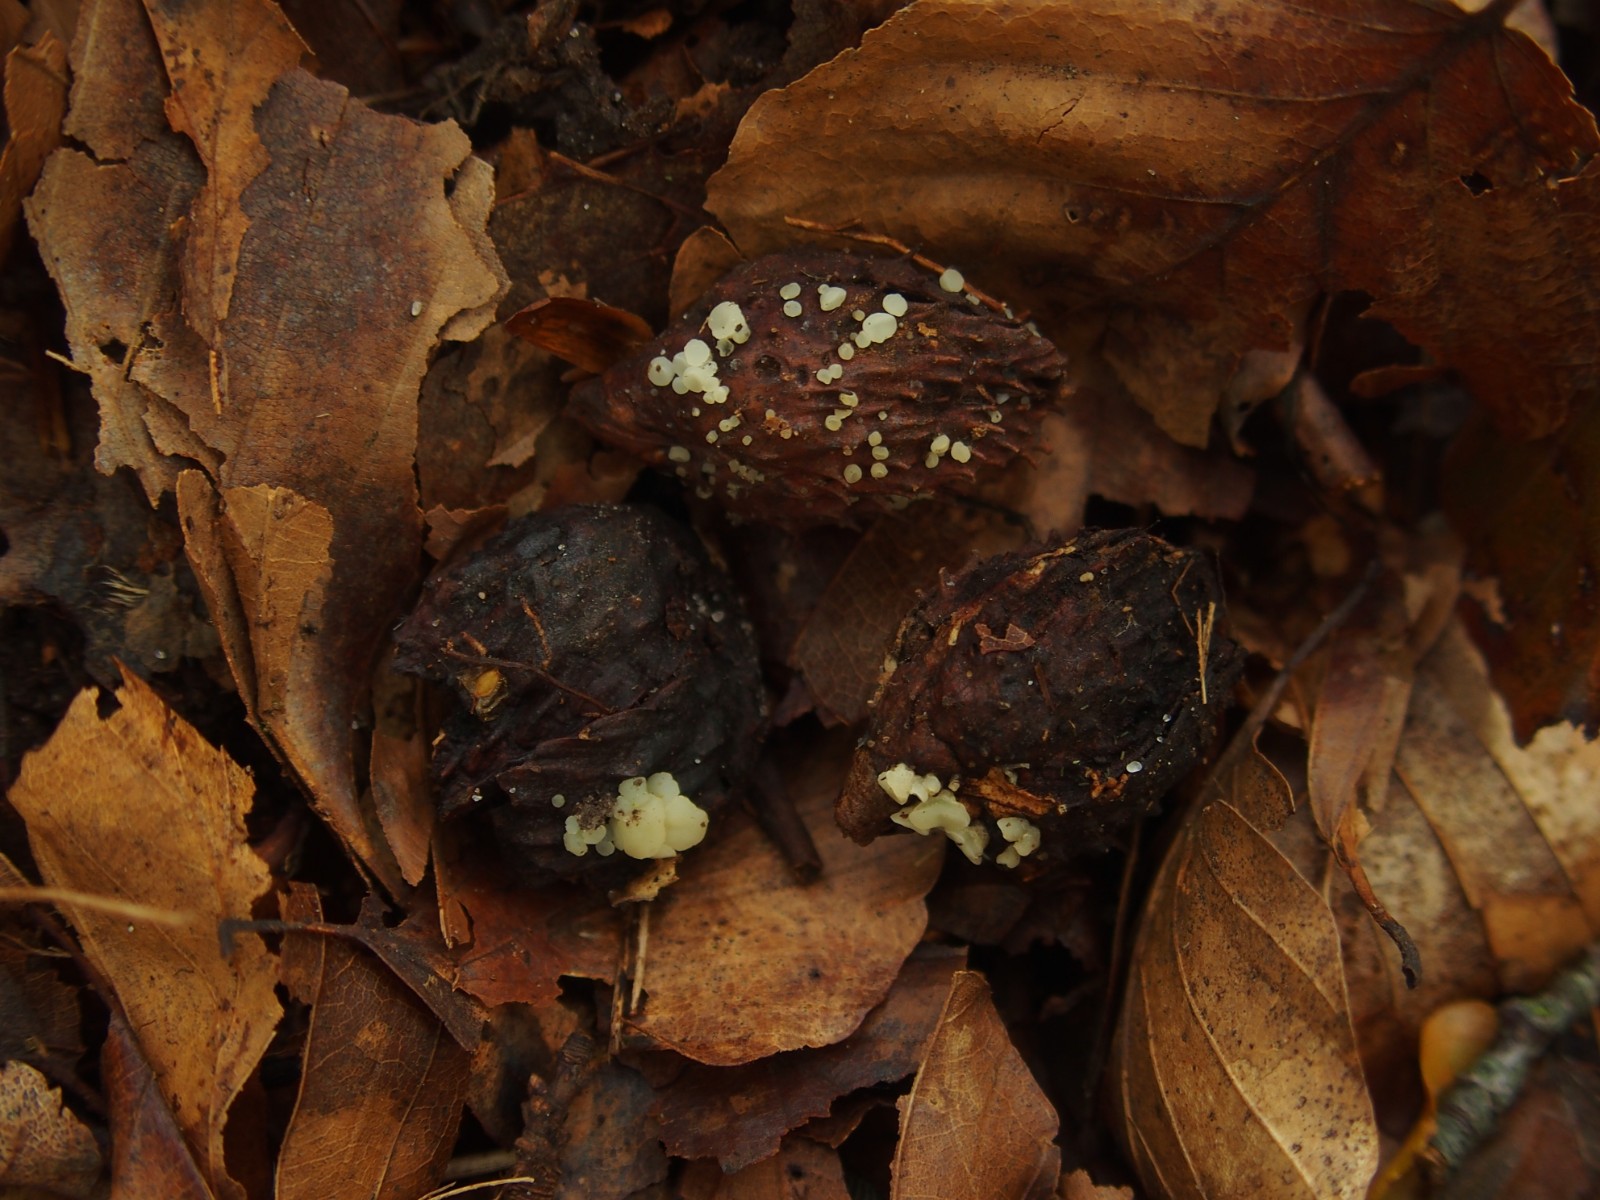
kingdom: Fungi
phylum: Ascomycota
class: Leotiomycetes
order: Helotiales
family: Helotiaceae
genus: Hymenoscyphus
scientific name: Hymenoscyphus fagineus
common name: vellugtende stilkskive
